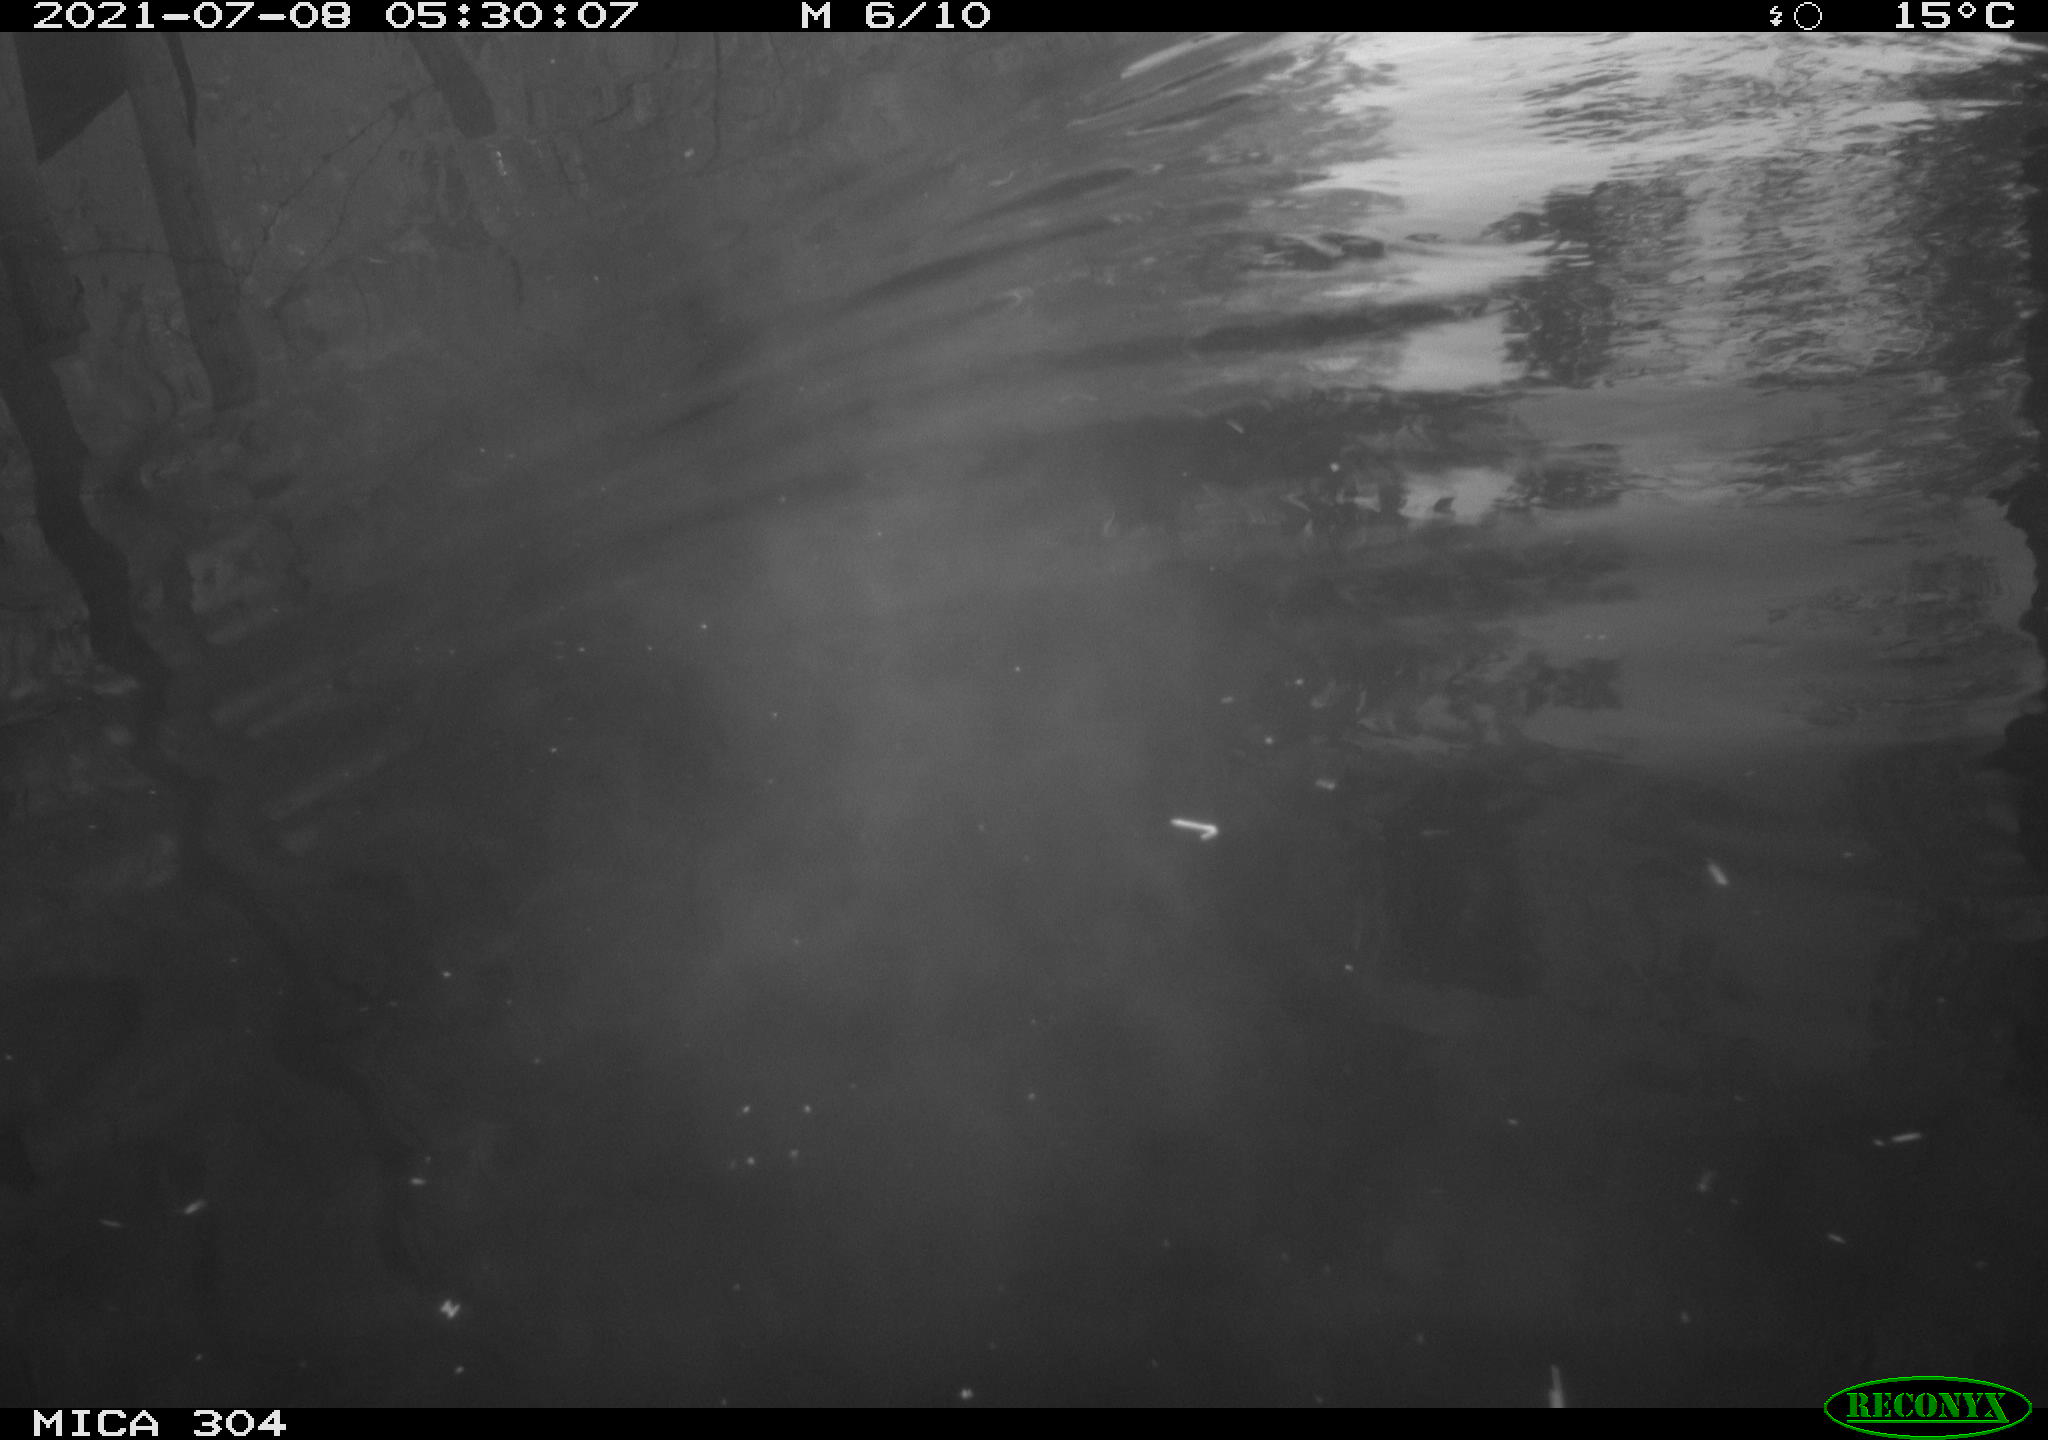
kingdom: Animalia
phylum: Chordata
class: Aves
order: Anseriformes
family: Anatidae
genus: Mareca
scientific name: Mareca strepera
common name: Gadwall
